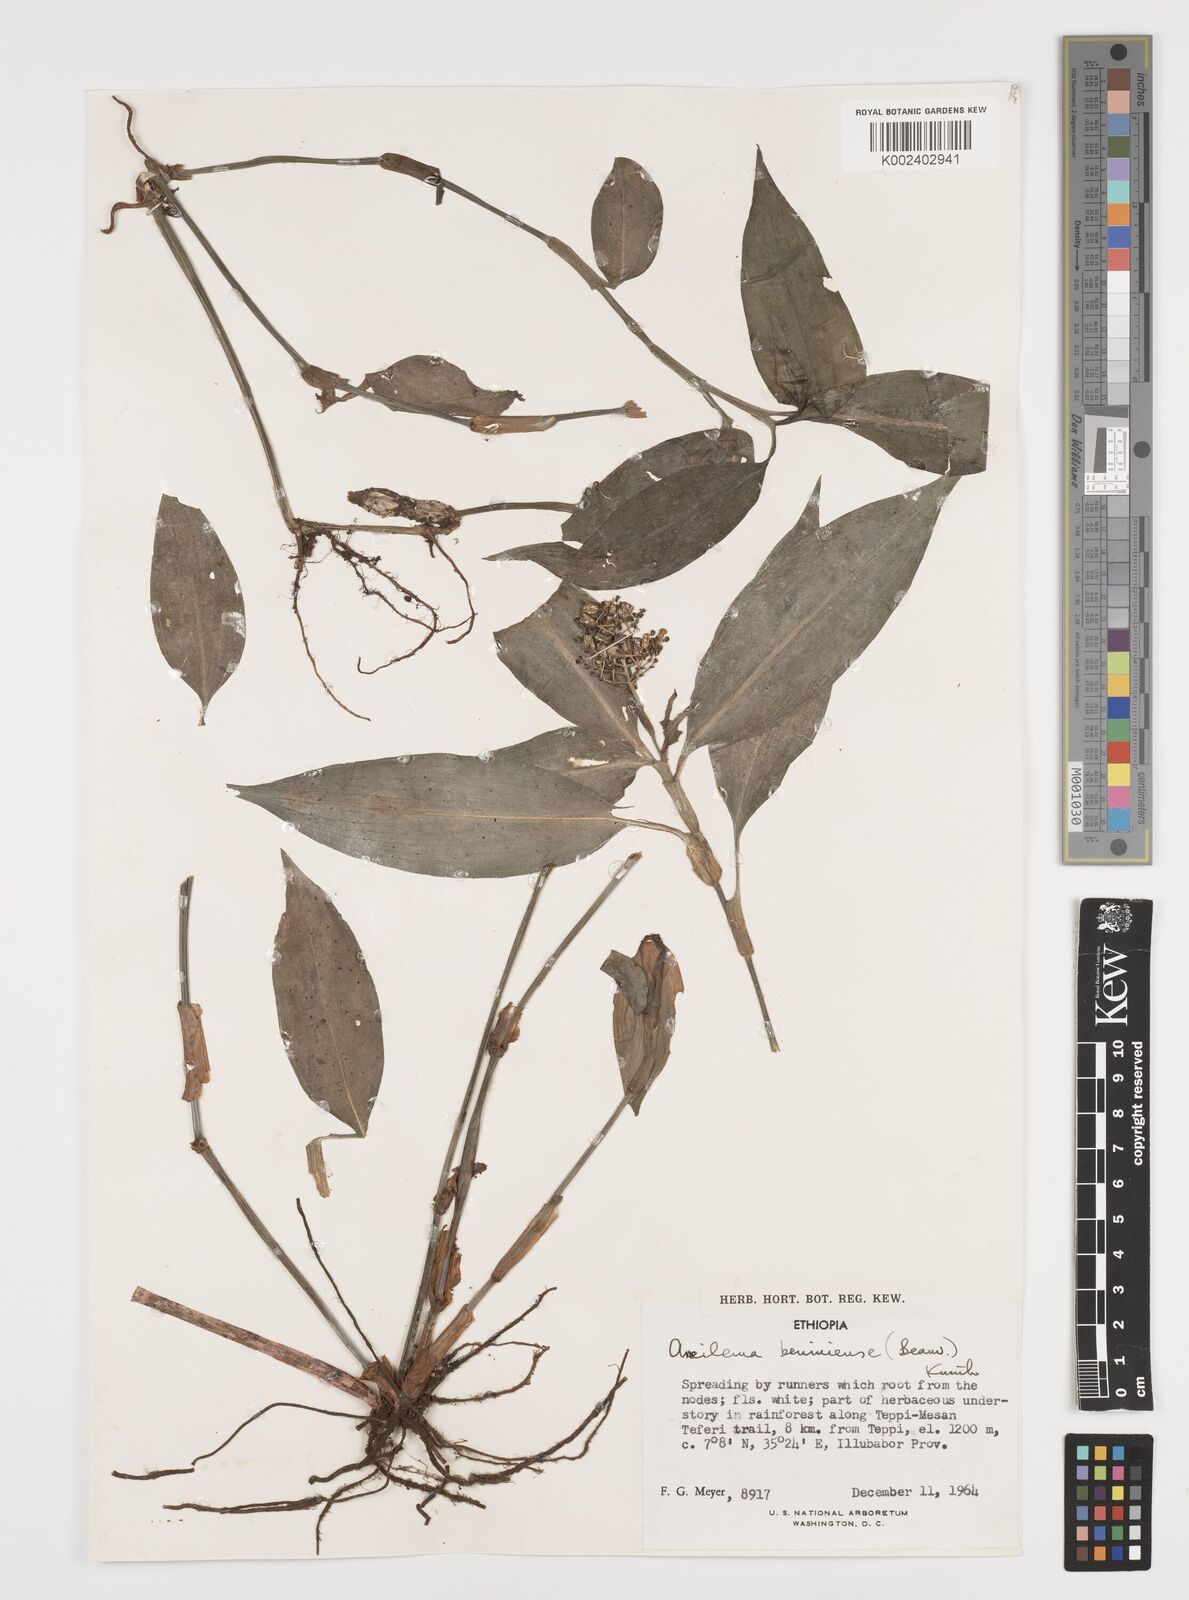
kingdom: Plantae
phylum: Tracheophyta
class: Liliopsida
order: Commelinales
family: Commelinaceae
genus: Aneilema
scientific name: Aneilema beniniense
